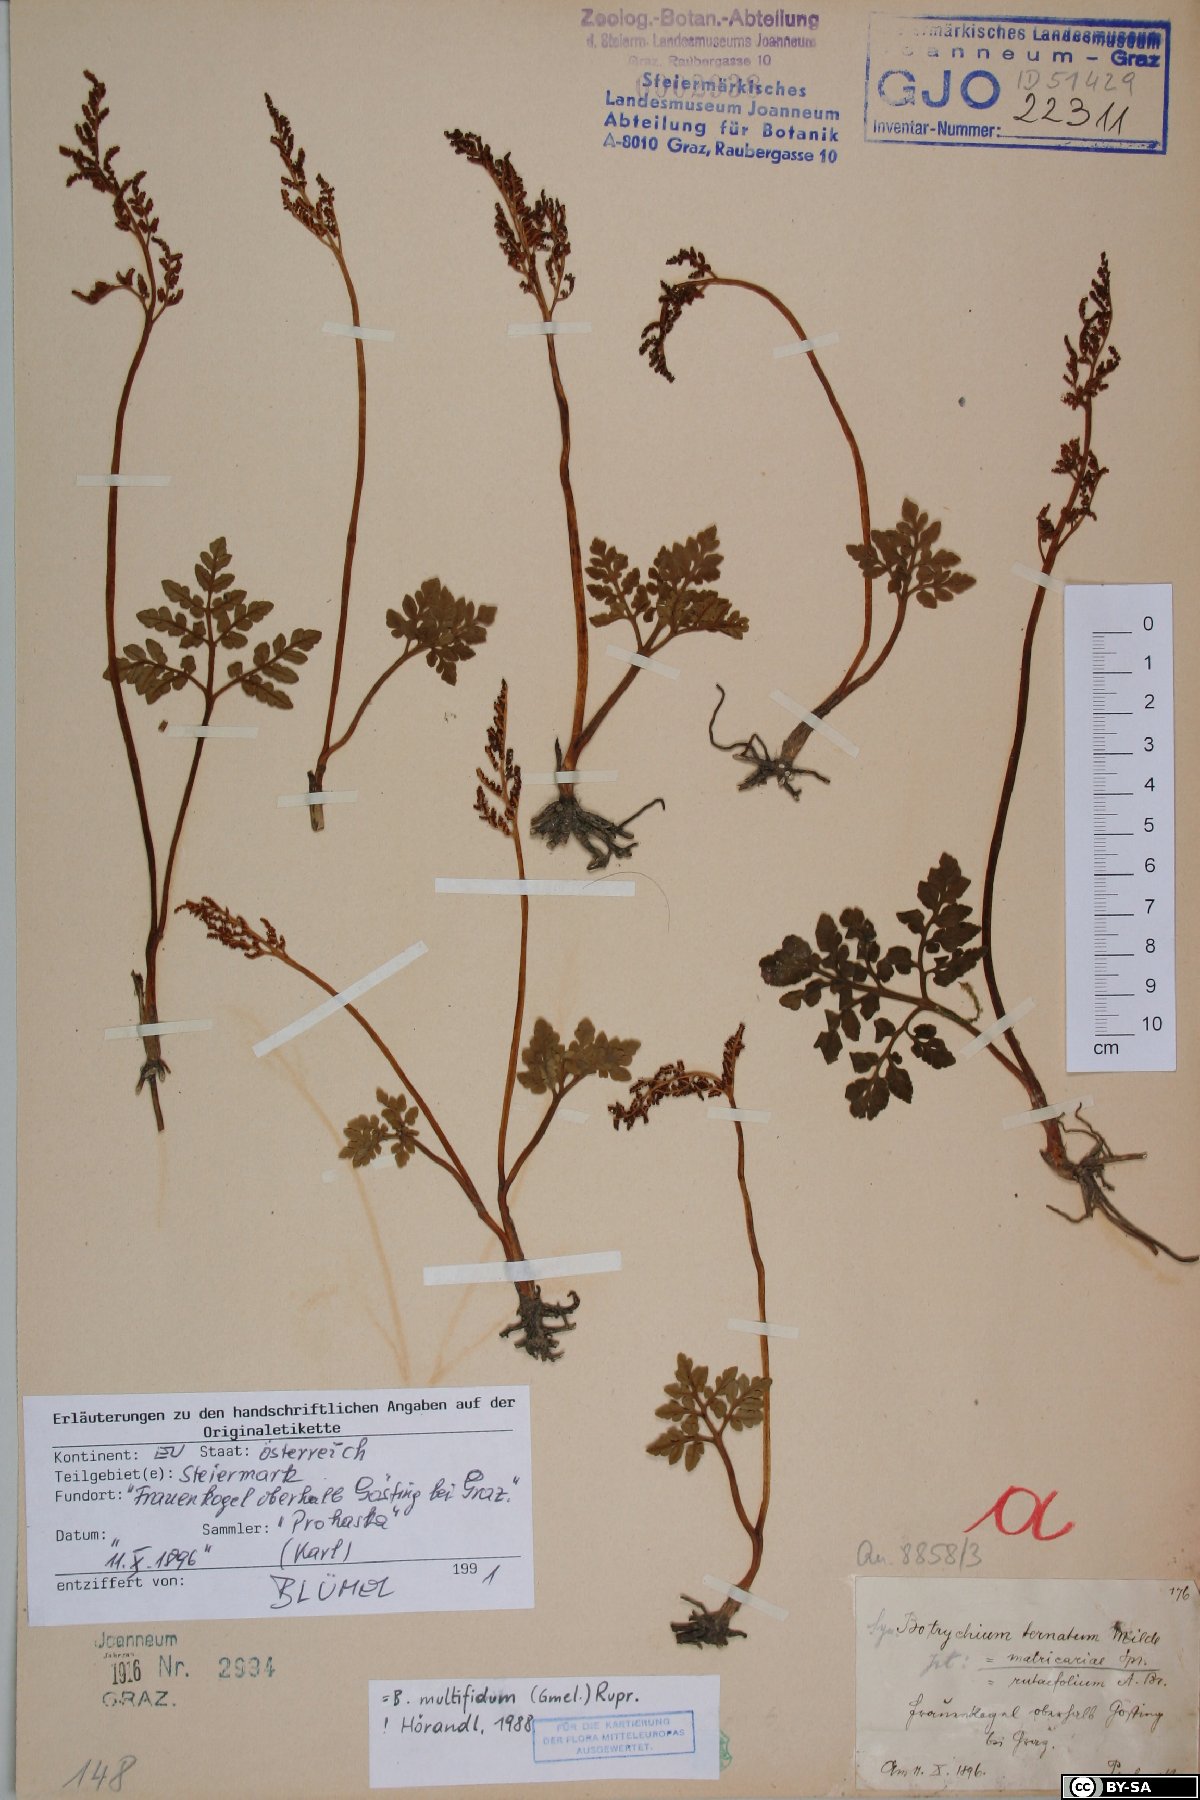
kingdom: Plantae
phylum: Tracheophyta
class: Polypodiopsida
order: Ophioglossales
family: Ophioglossaceae
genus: Sceptridium
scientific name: Sceptridium multifidum
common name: Leathery grape fern
